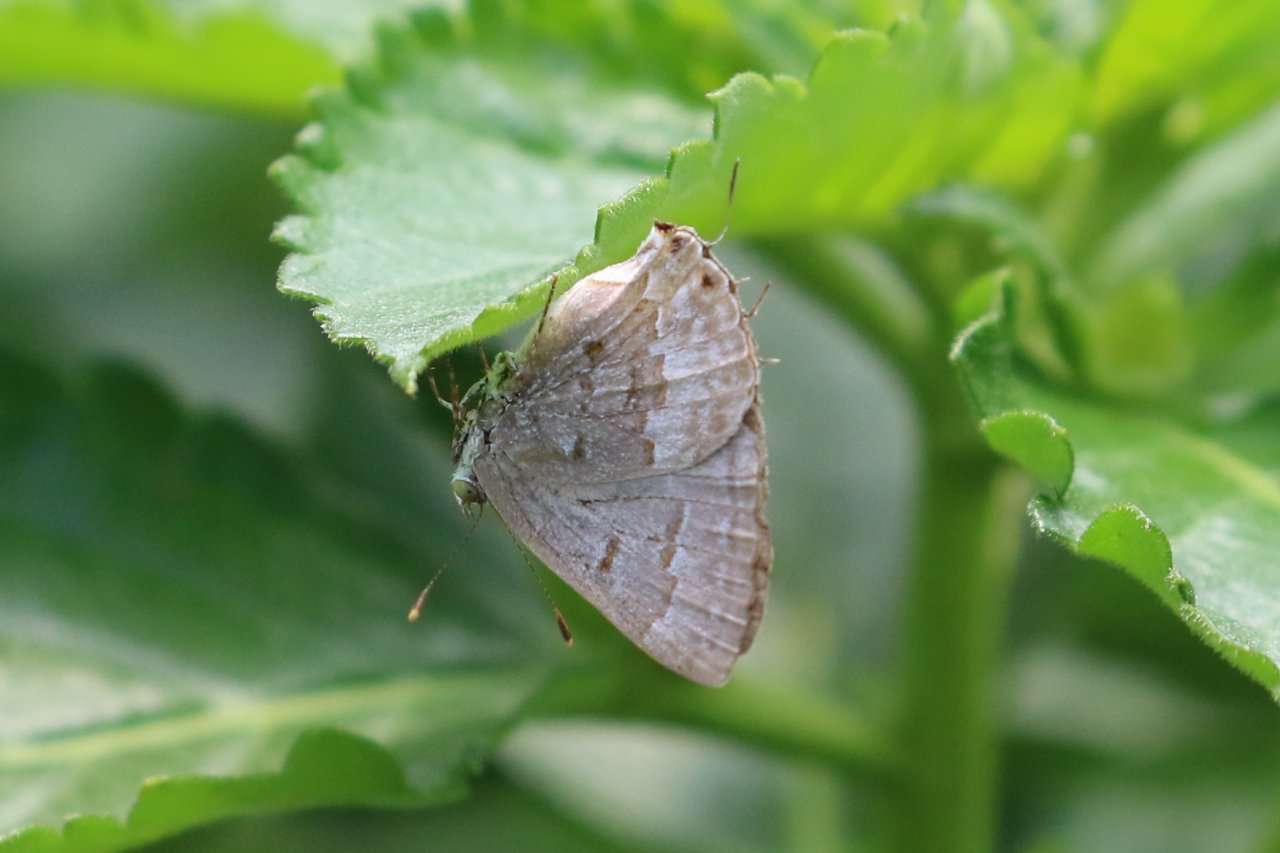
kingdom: Animalia
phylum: Arthropoda
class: Insecta
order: Lepidoptera
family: Lycaenidae
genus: Ministrymon
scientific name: Ministrymon clytie
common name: Clytie Ministreak
